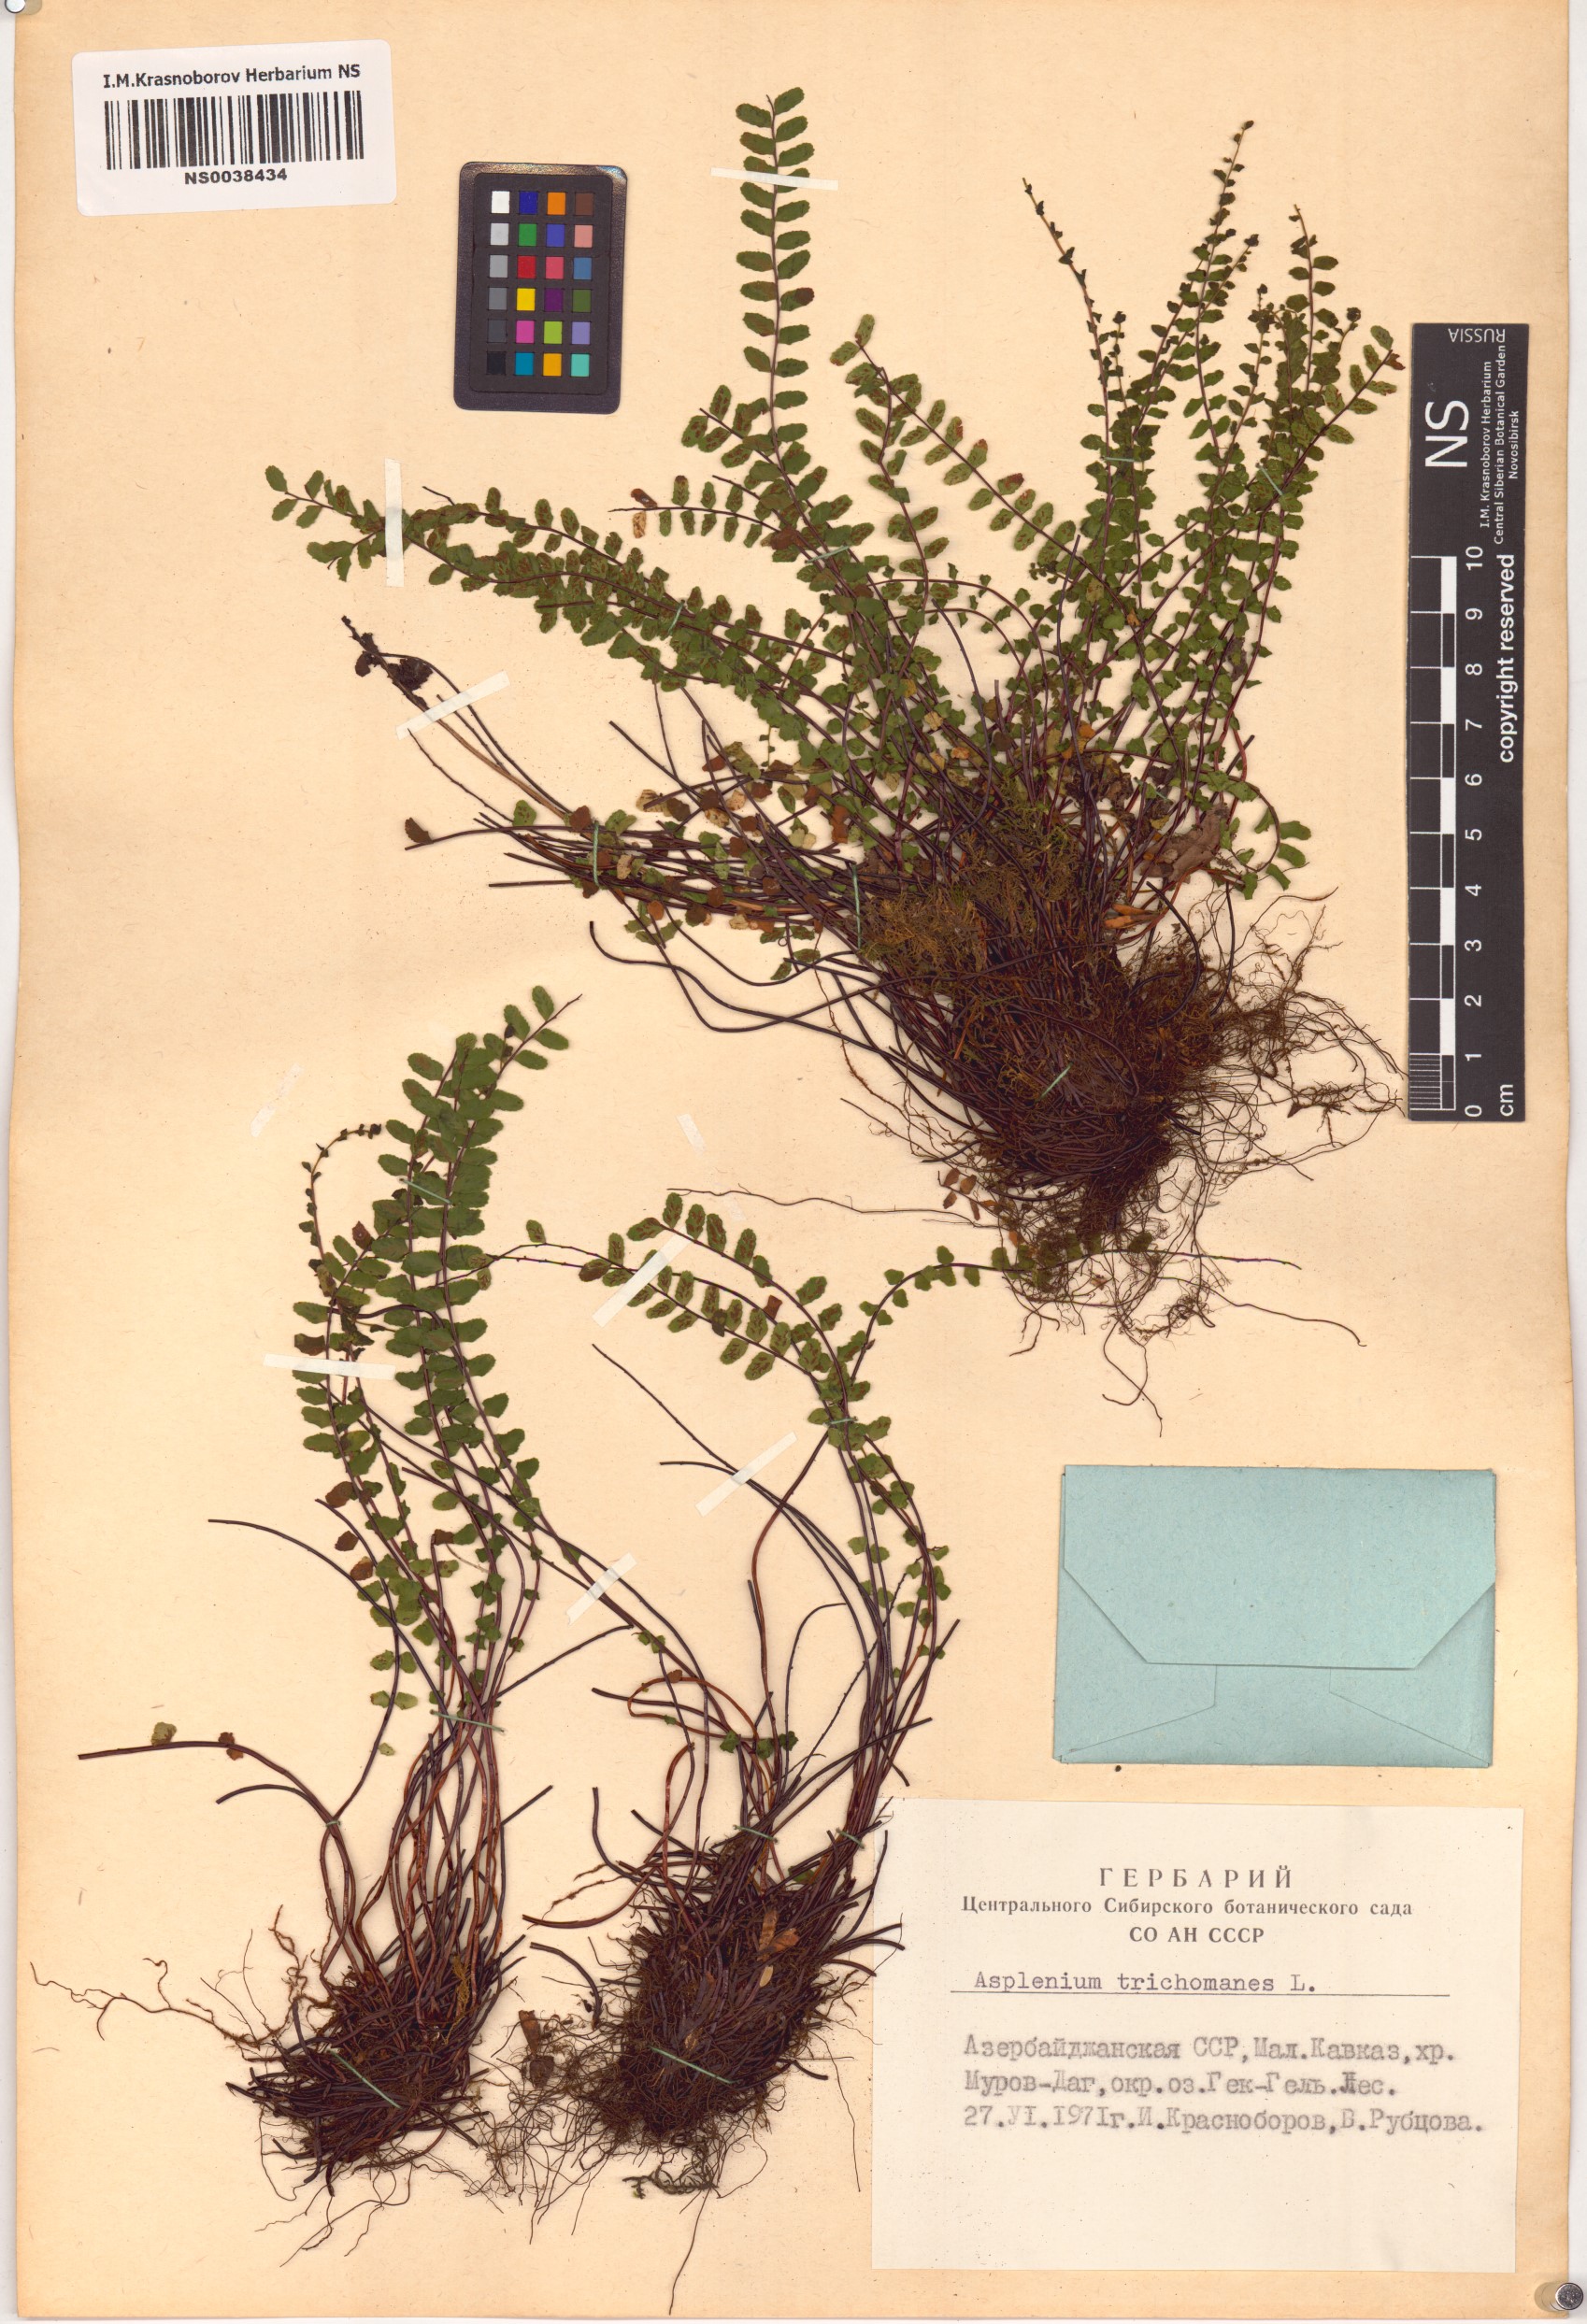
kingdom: Plantae
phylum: Tracheophyta
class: Polypodiopsida
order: Polypodiales
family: Aspleniaceae
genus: Asplenium
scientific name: Asplenium trichomanes
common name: Maidenhair spleenwort
